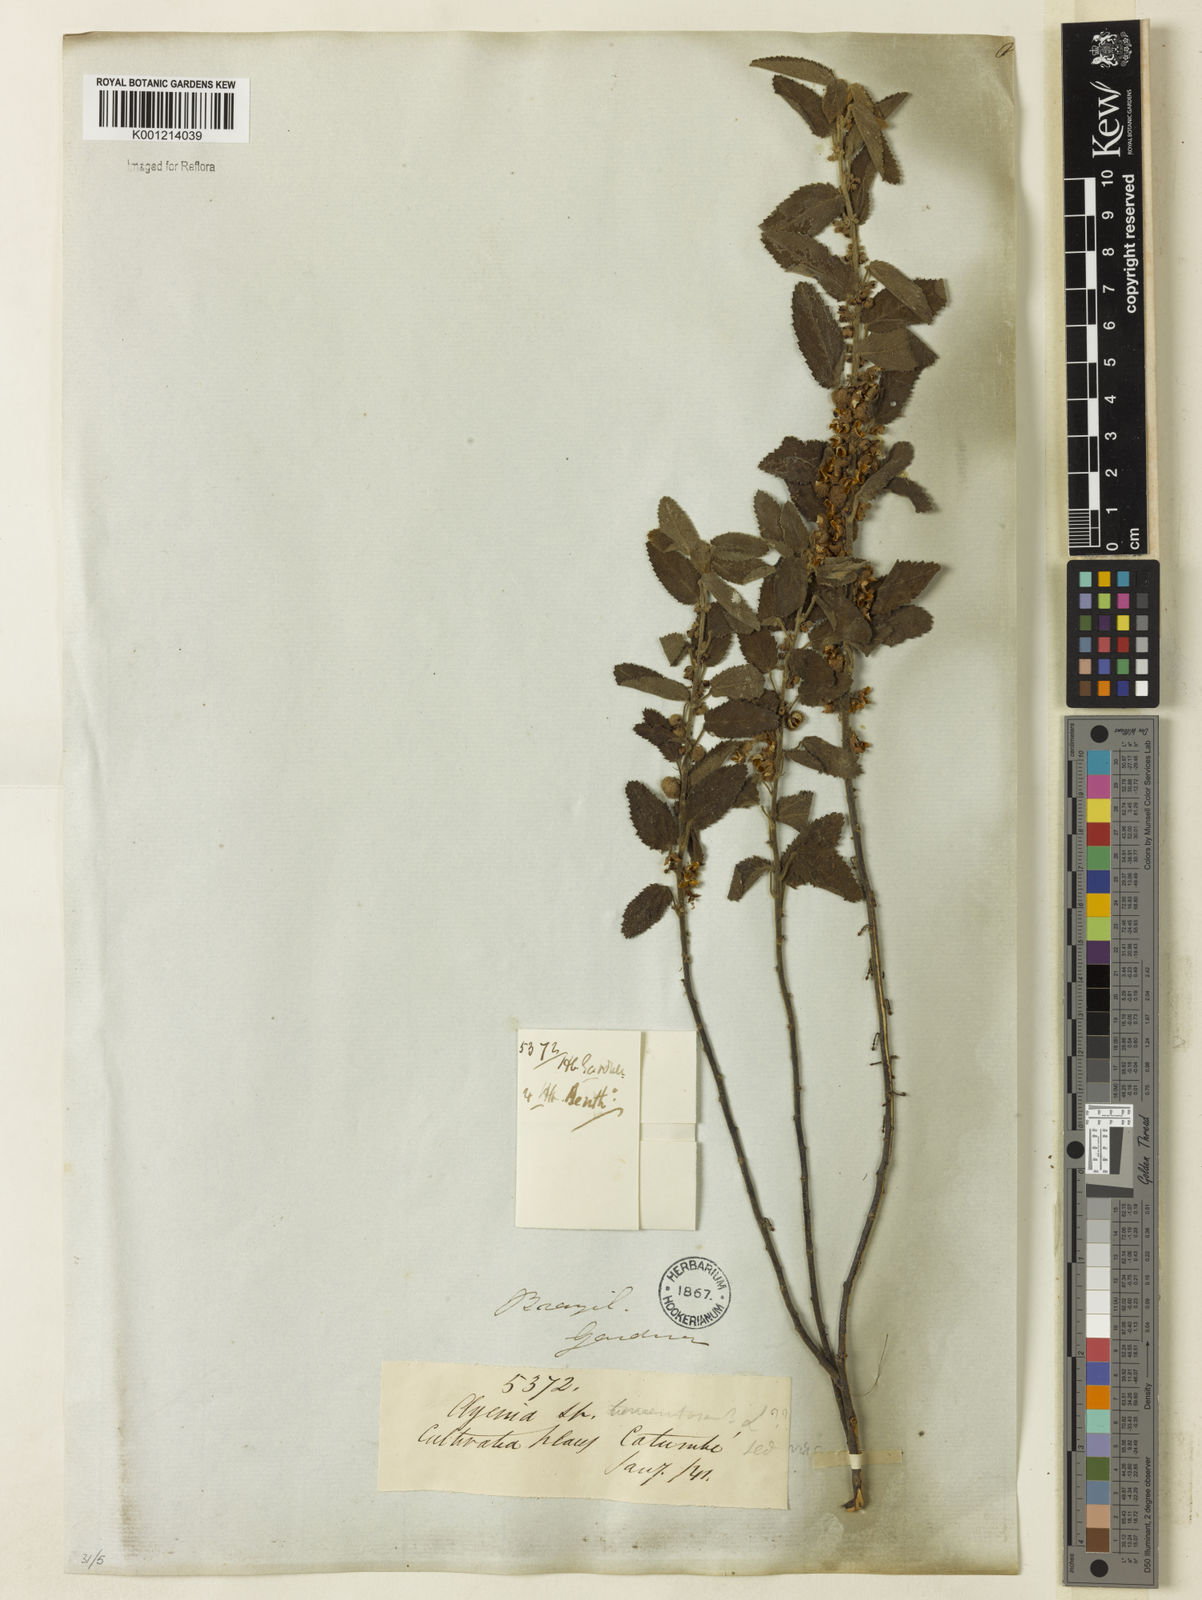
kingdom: Plantae
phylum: Tracheophyta
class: Magnoliopsida
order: Malvales
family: Malvaceae
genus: Ayenia
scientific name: Ayenia tomentosa
